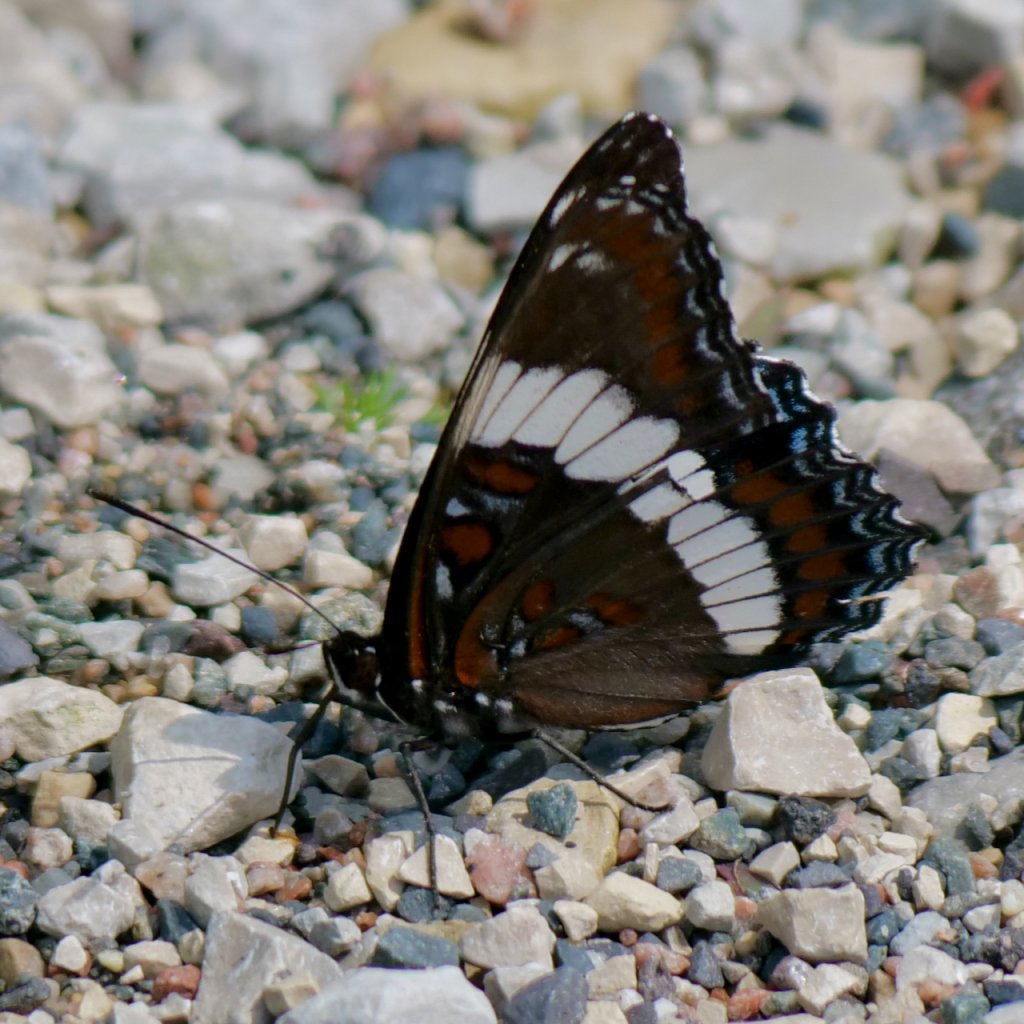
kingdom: Animalia
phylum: Arthropoda
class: Insecta
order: Lepidoptera
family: Nymphalidae
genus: Limenitis
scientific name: Limenitis arthemis
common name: Red-spotted Admiral
